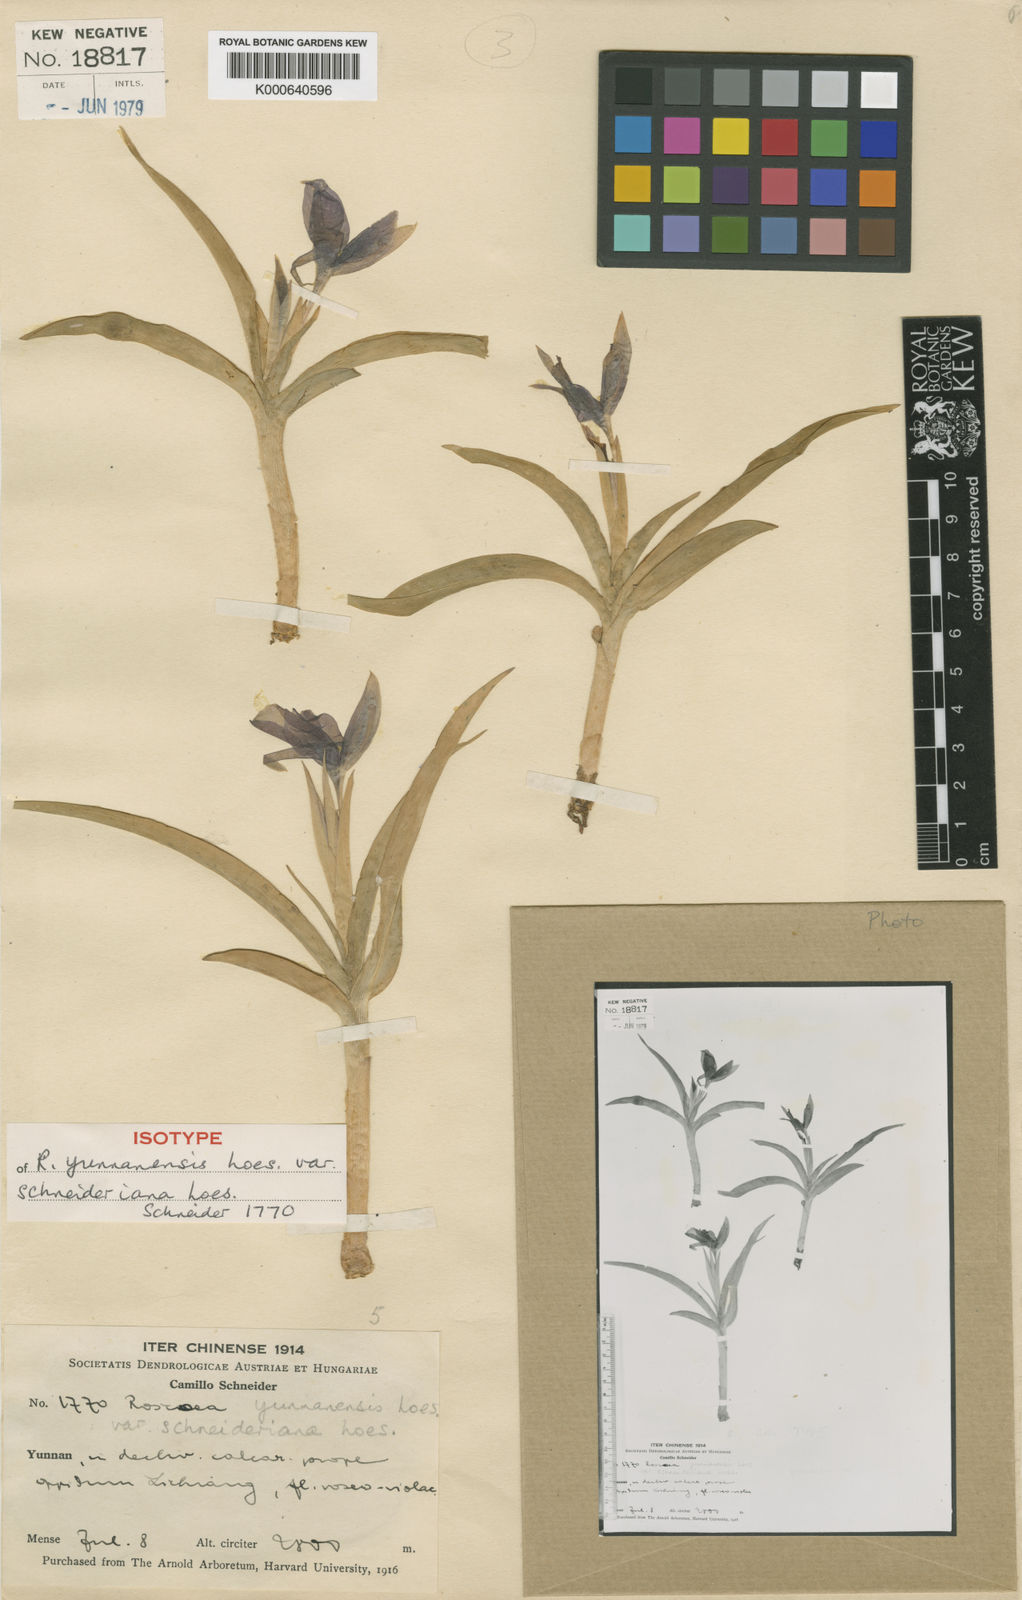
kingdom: Plantae
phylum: Tracheophyta
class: Liliopsida
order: Zingiberales
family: Zingiberaceae
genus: Roscoea
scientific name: Roscoea schneideriana
